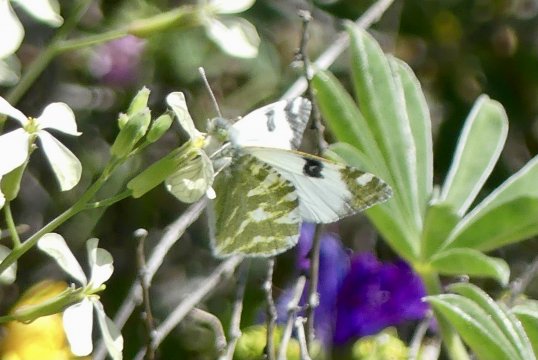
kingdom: Animalia
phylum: Arthropoda
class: Insecta
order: Lepidoptera
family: Pieridae
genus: Euchloe
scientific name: Euchloe belemia
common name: Green-striped White
